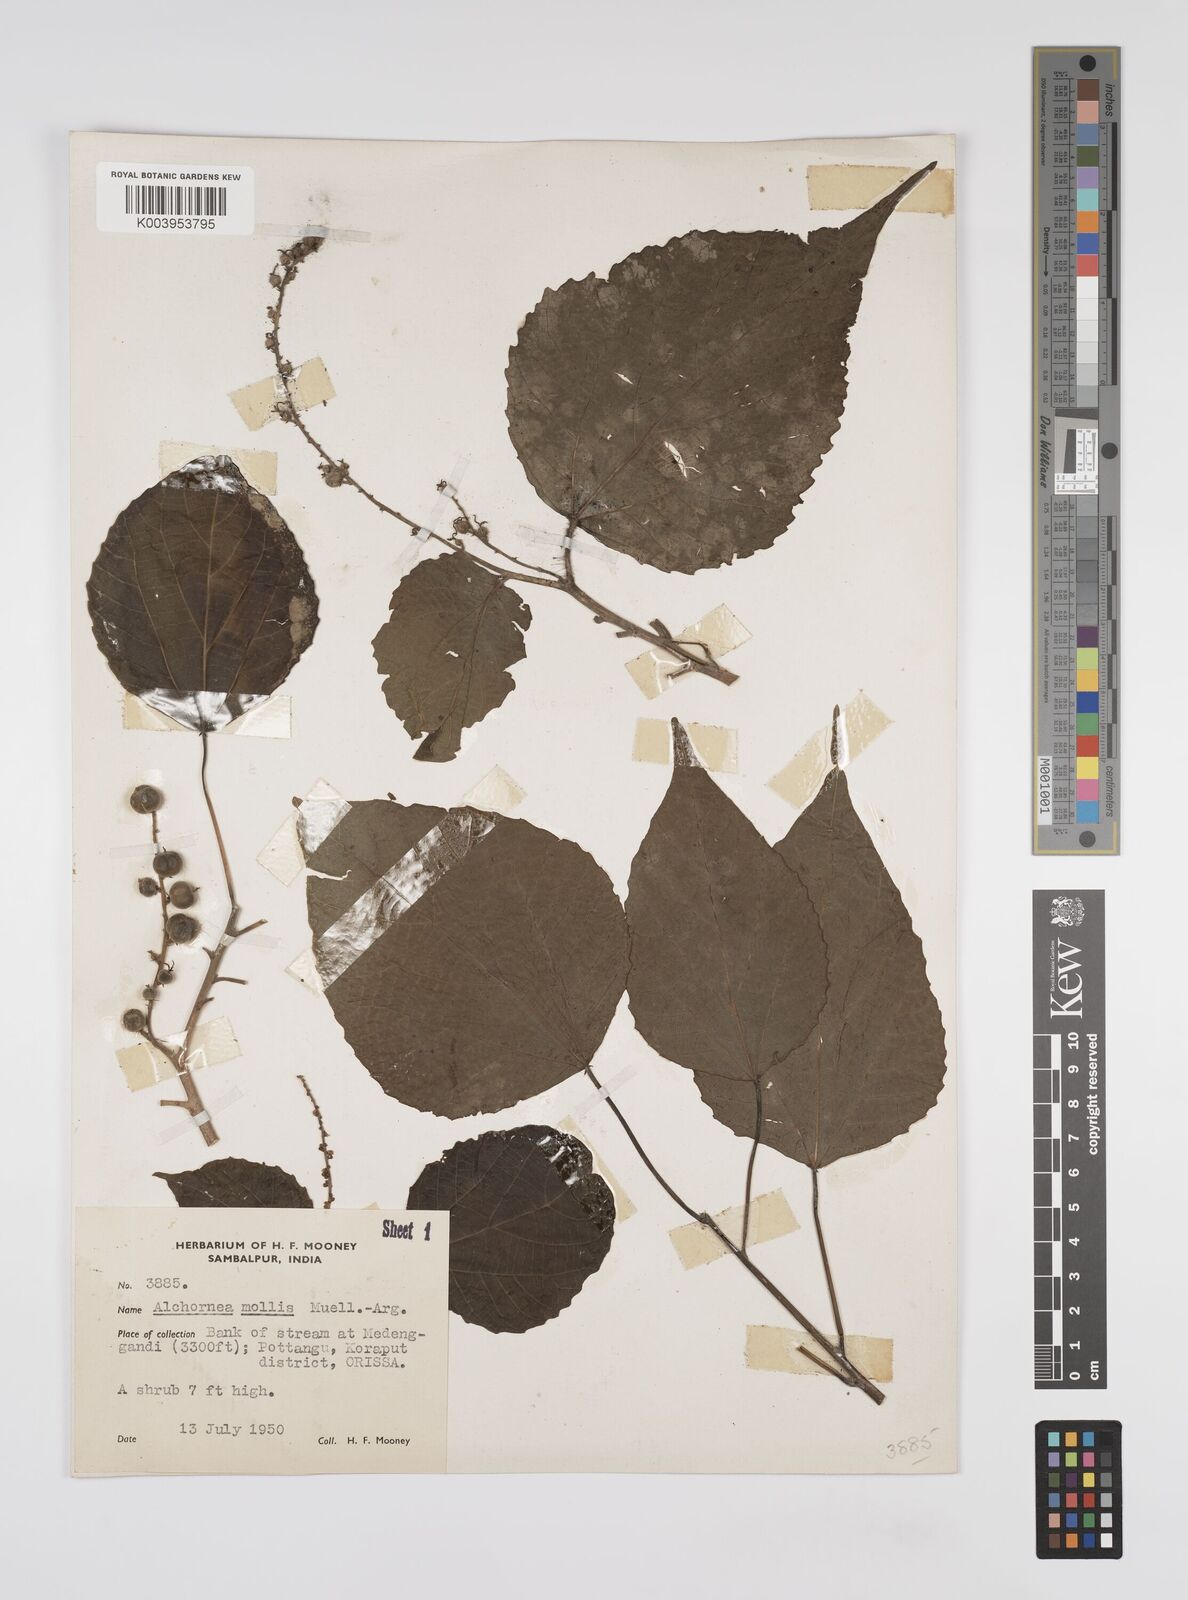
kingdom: Plantae
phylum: Tracheophyta
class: Magnoliopsida
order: Malpighiales
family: Euphorbiaceae
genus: Alchornea
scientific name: Alchornea mollis
